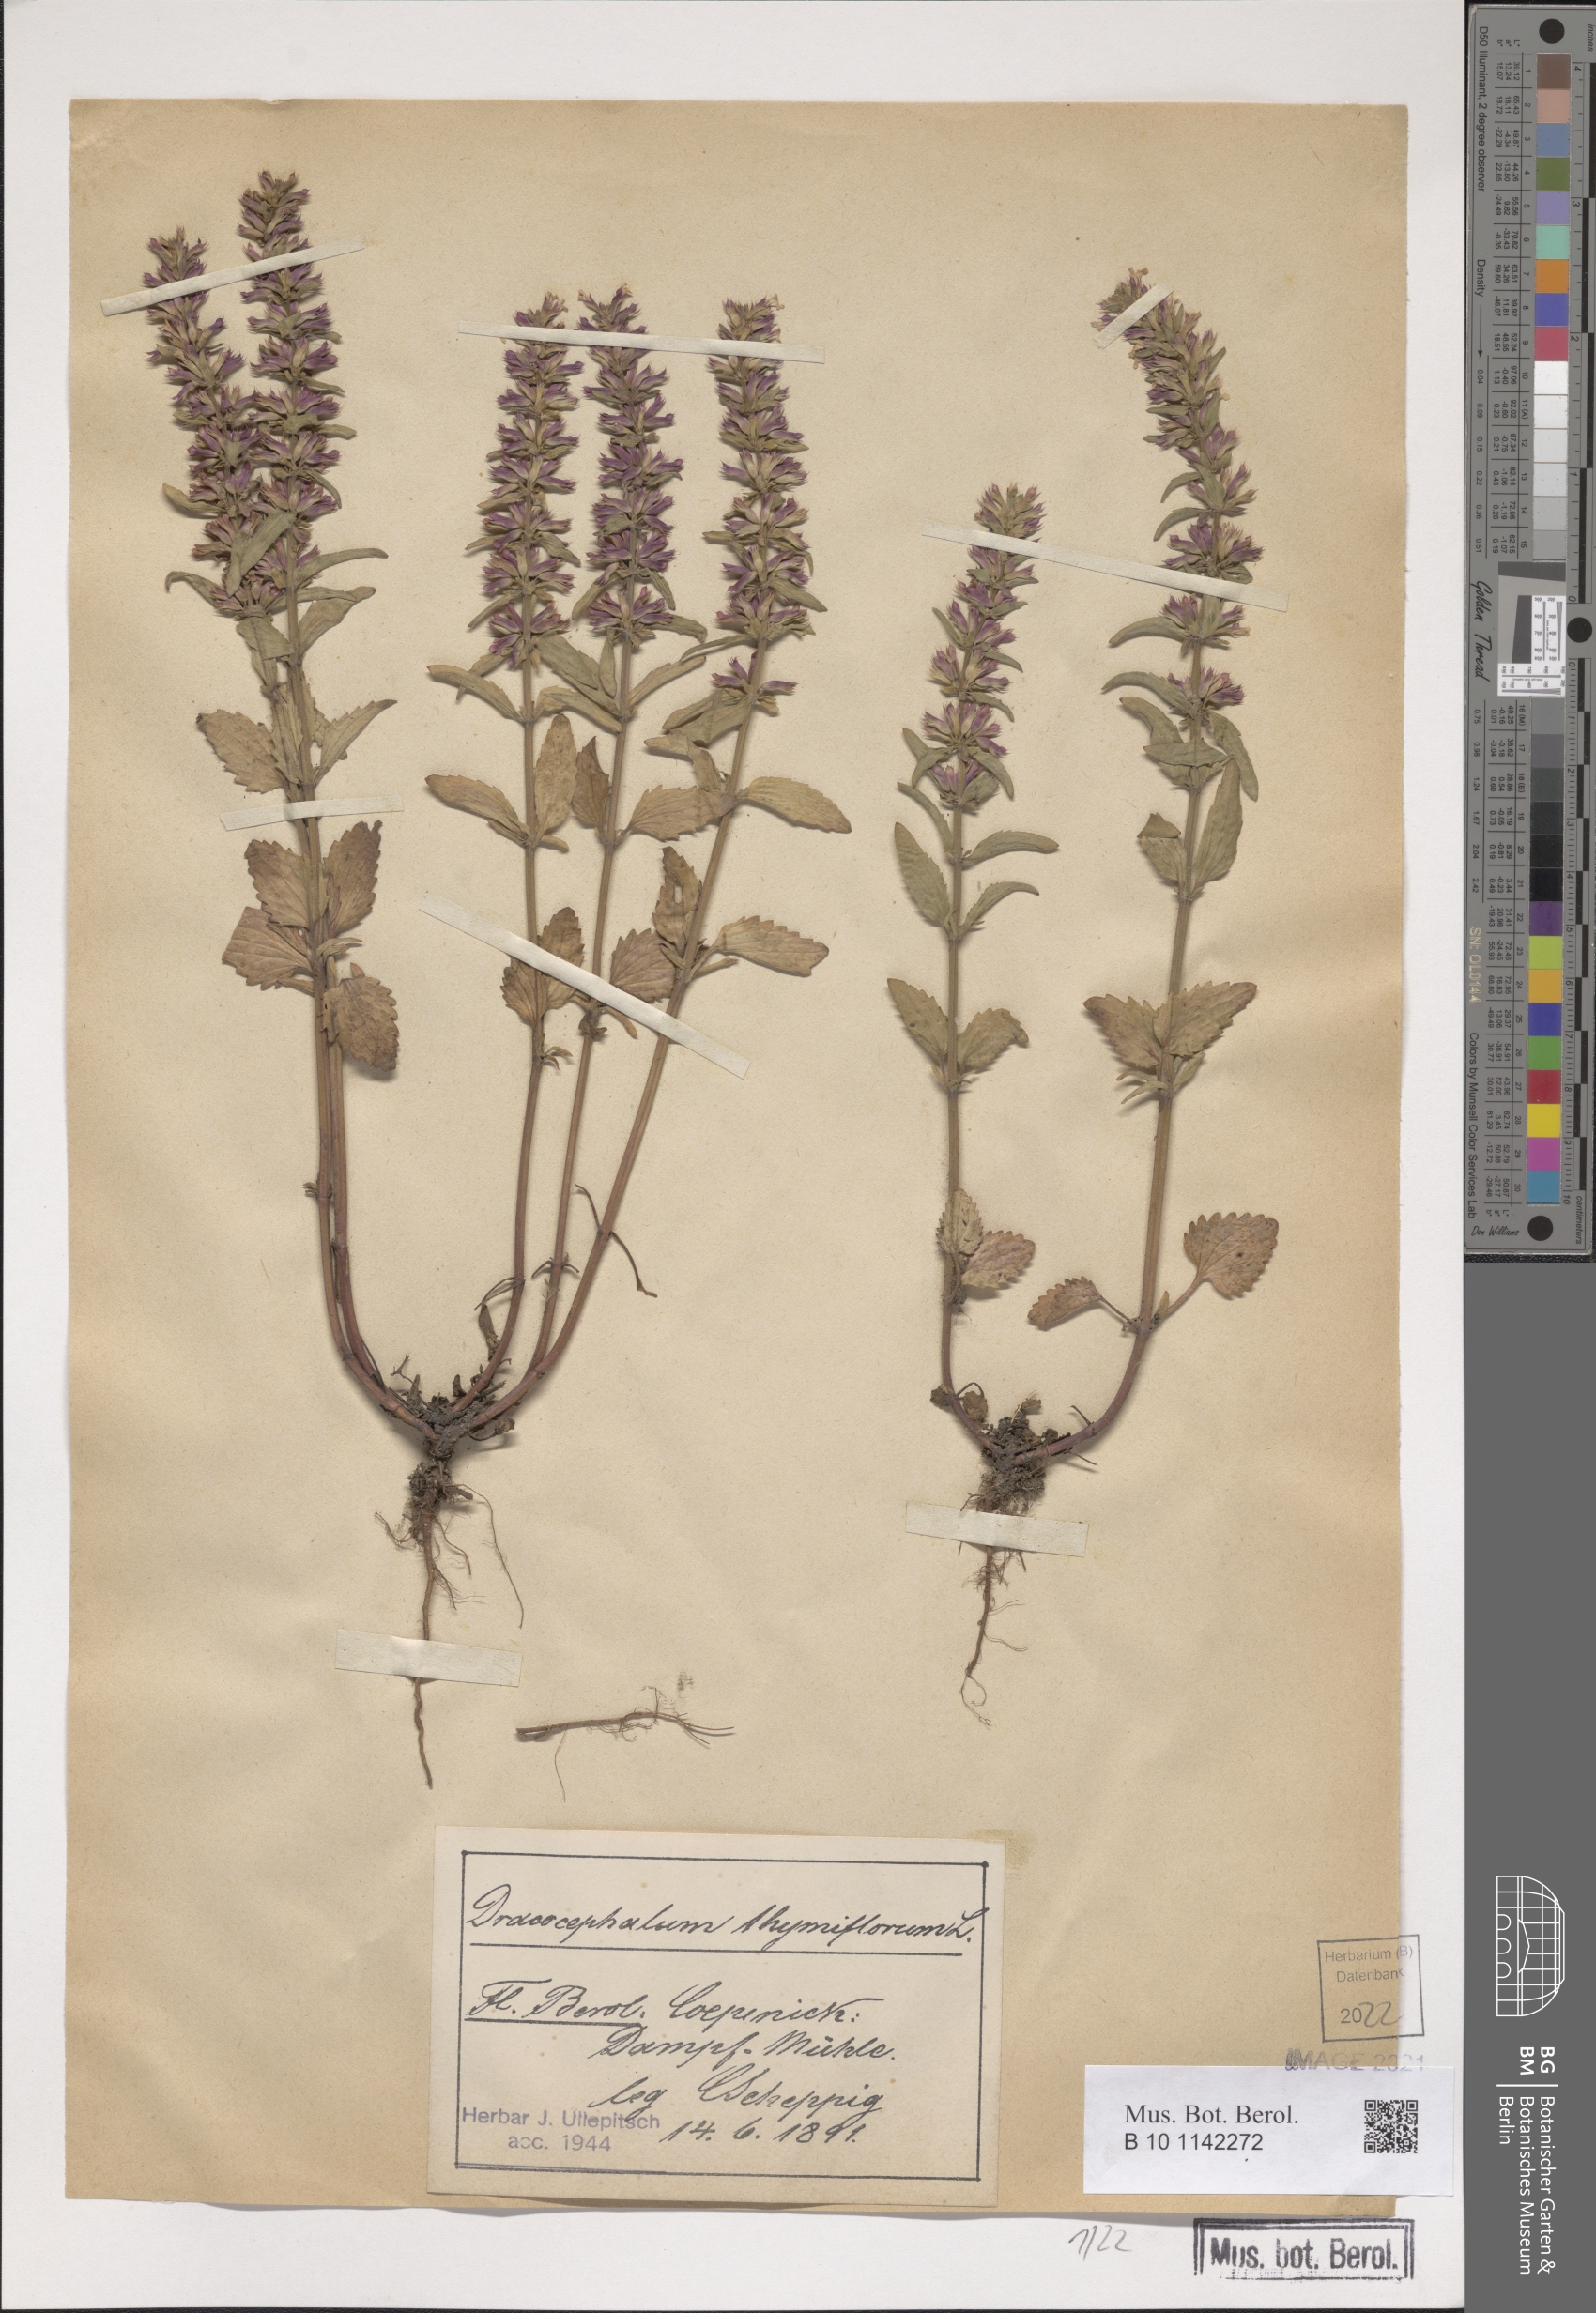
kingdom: Plantae
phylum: Tracheophyta
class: Magnoliopsida
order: Lamiales
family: Lamiaceae
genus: Dracocephalum
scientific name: Dracocephalum thymiflorum
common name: Thymeleaf dragonhead
